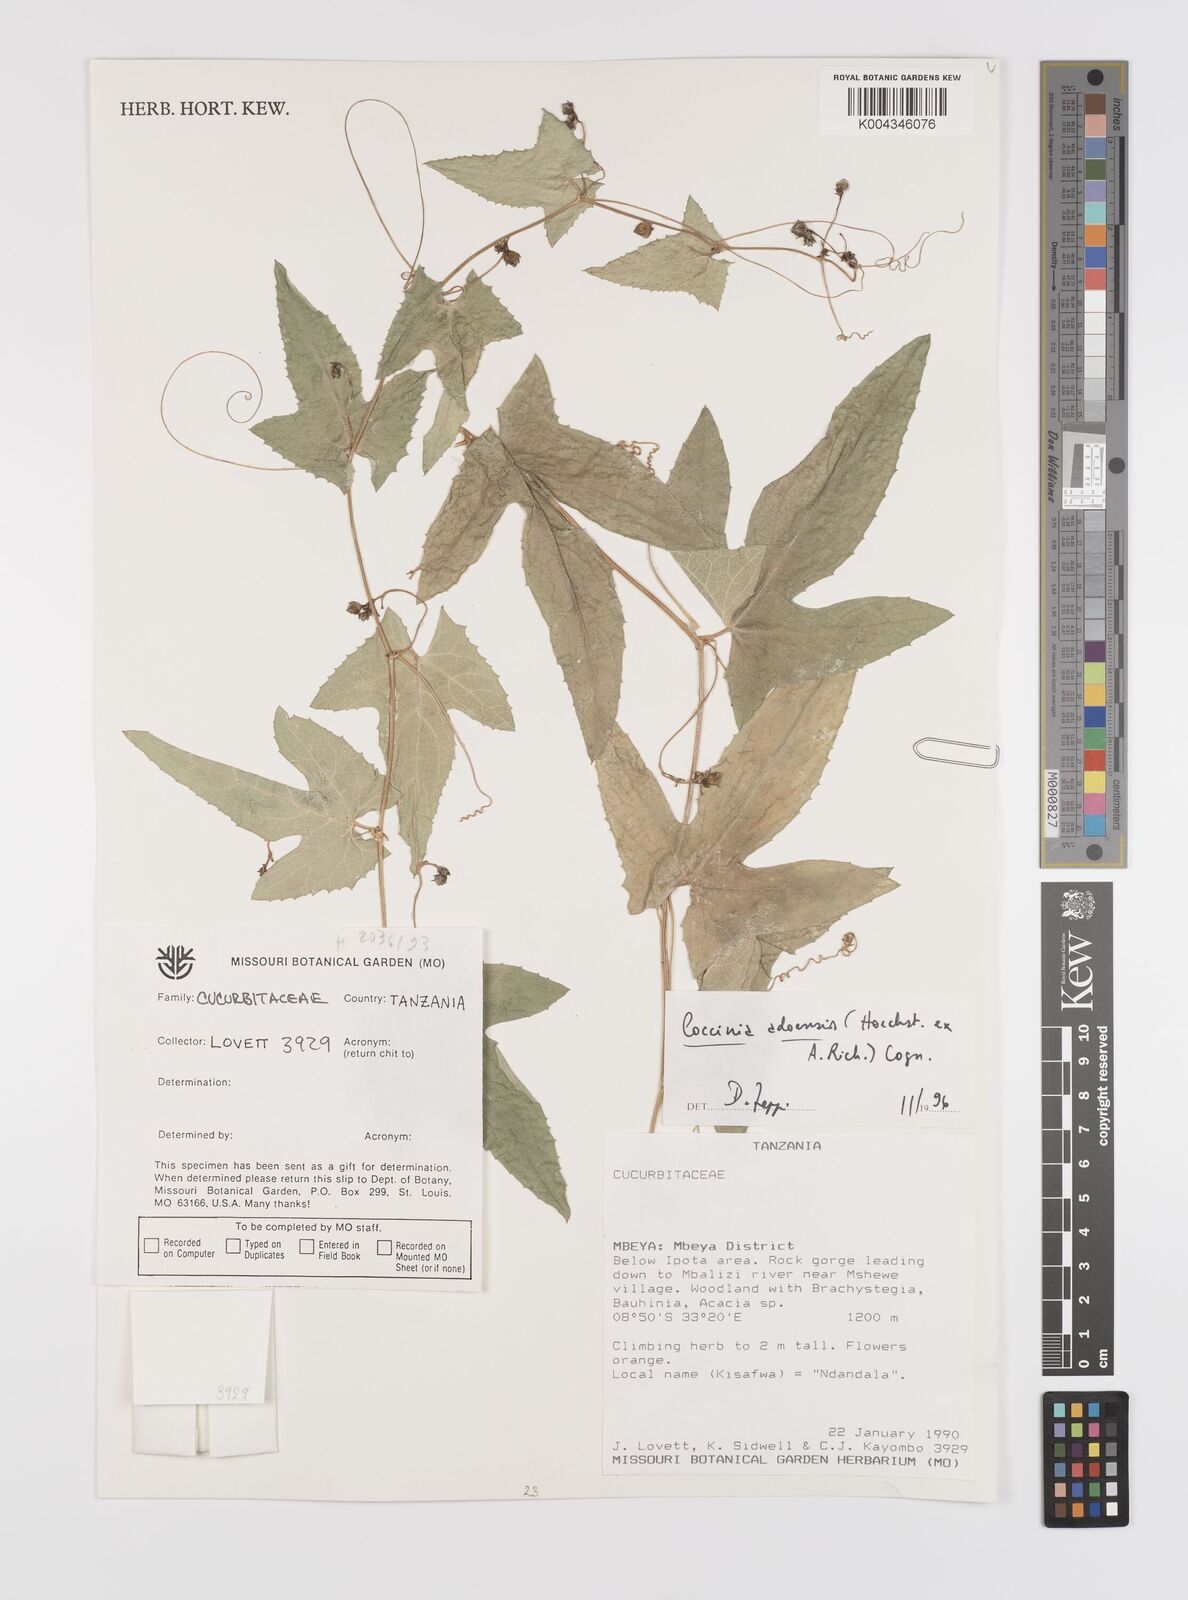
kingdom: Plantae
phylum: Tracheophyta
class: Magnoliopsida
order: Cucurbitales
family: Cucurbitaceae
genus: Coccinia
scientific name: Coccinia adoensis
